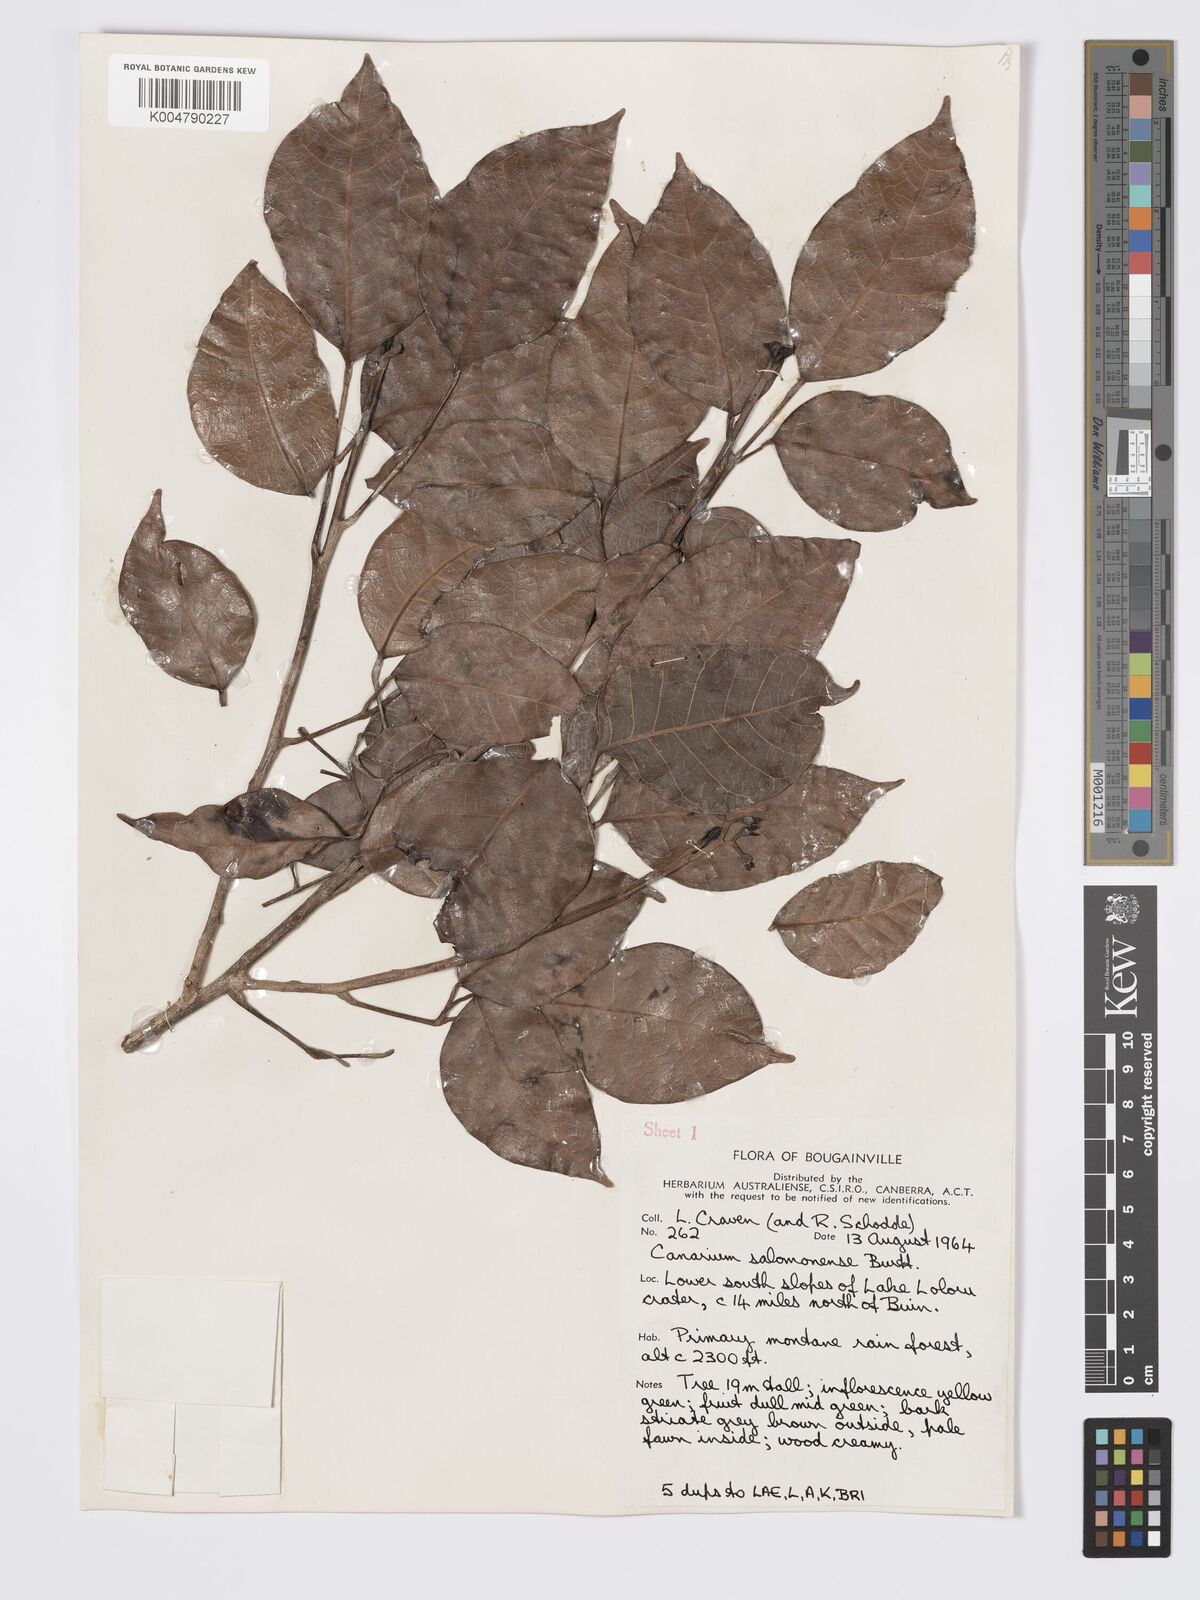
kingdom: Plantae
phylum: Tracheophyta
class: Magnoliopsida
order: Sapindales
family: Burseraceae
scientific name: Burseraceae
